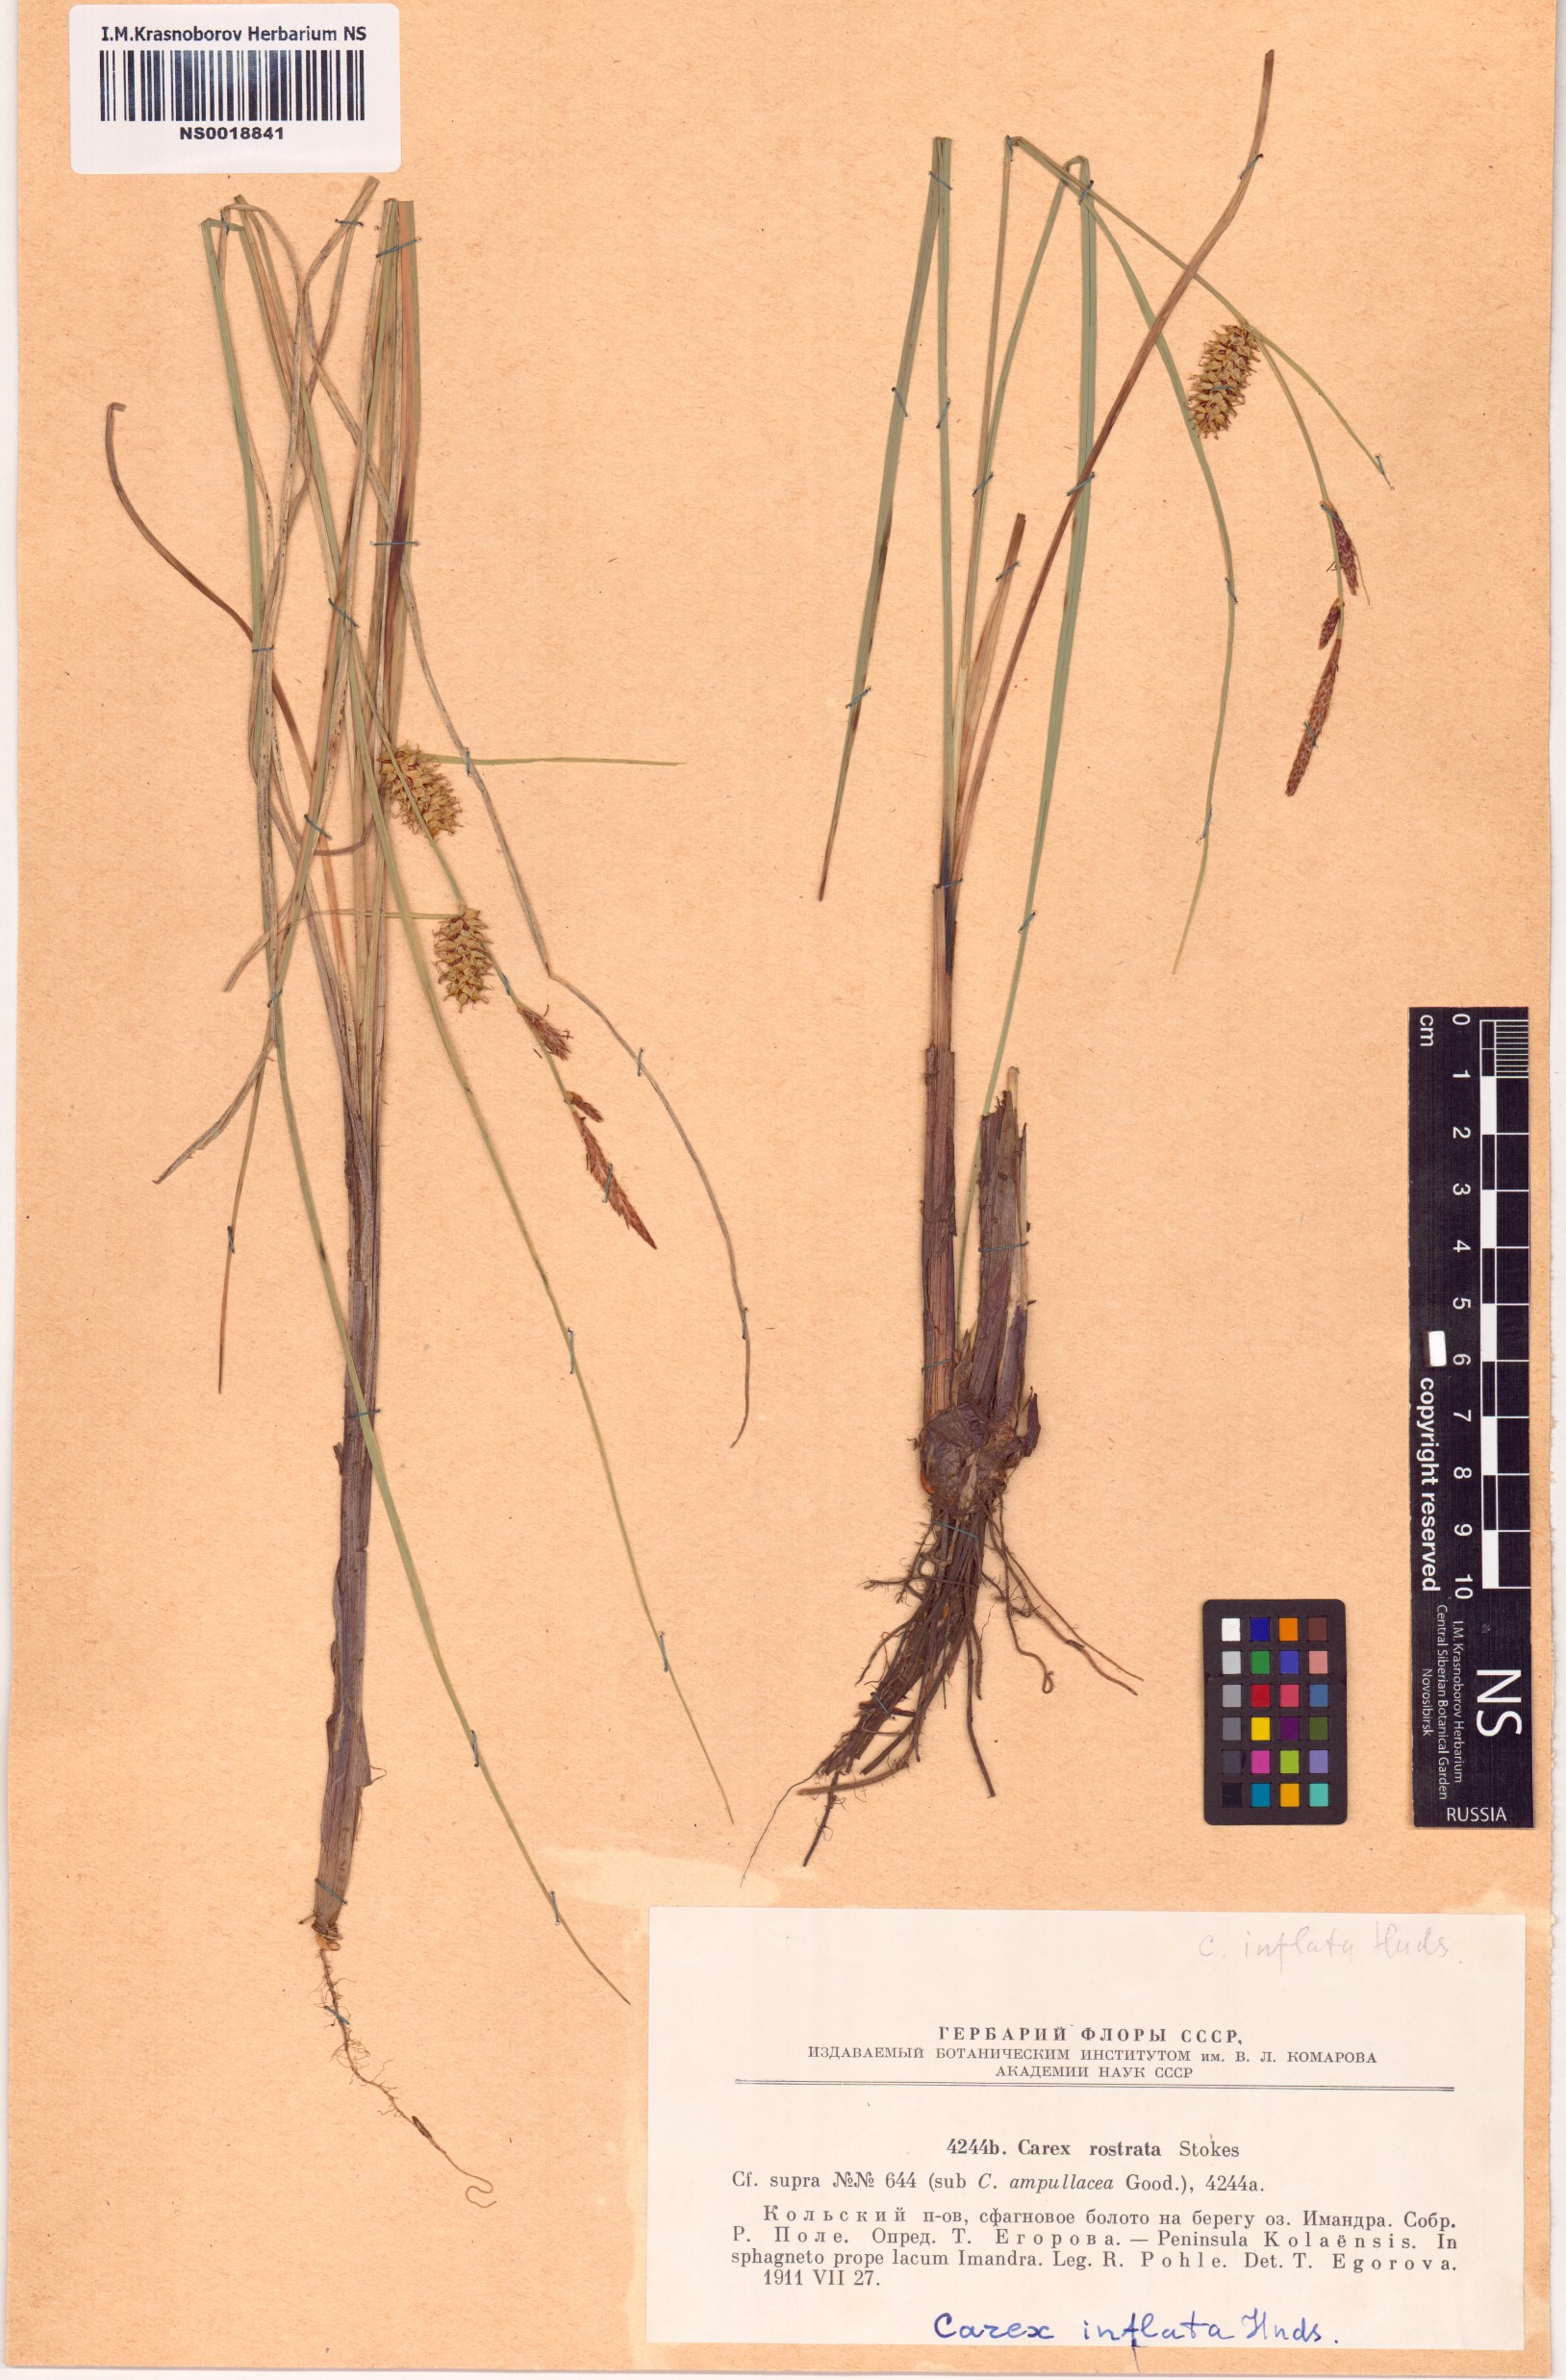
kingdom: Plantae
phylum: Tracheophyta
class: Liliopsida
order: Poales
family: Cyperaceae
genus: Carex
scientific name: Carex rostrata
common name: Bottle sedge
